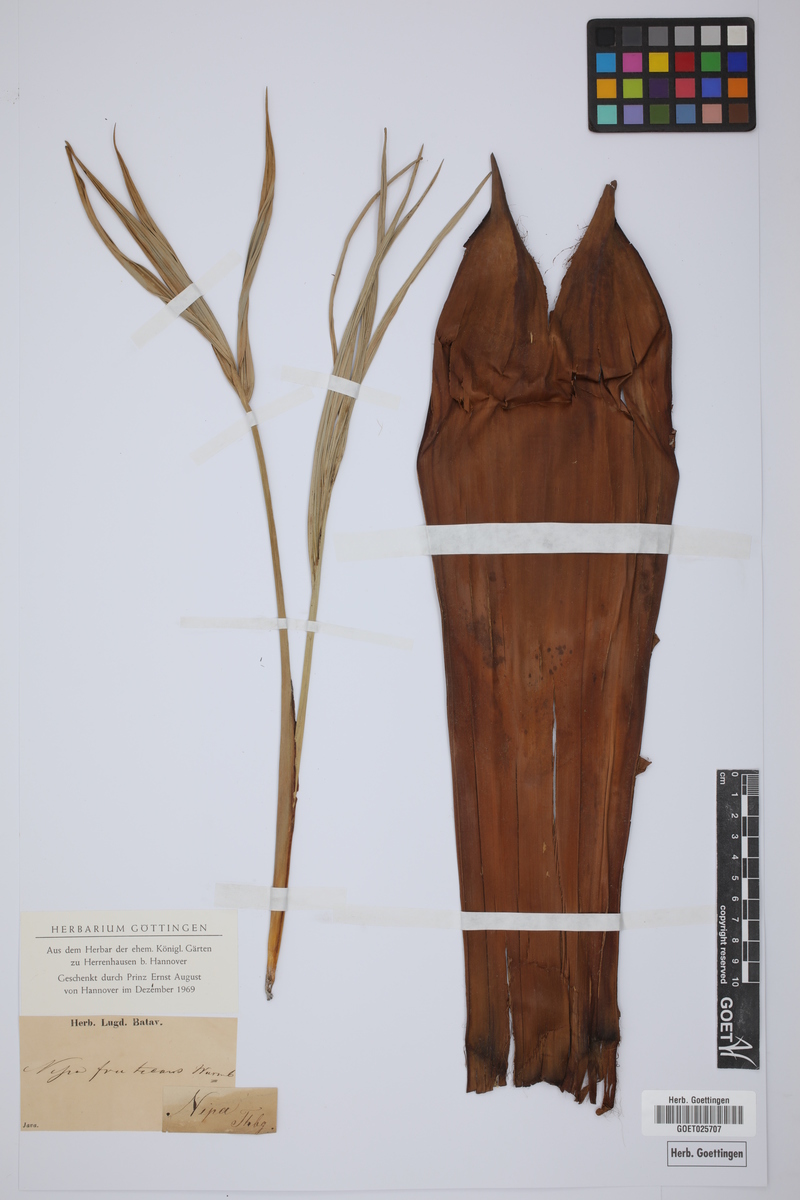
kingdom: Plantae
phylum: Tracheophyta
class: Liliopsida
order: Arecales
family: Arecaceae
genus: Nypa
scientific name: Nypa fruticans
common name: Mangrove palm
